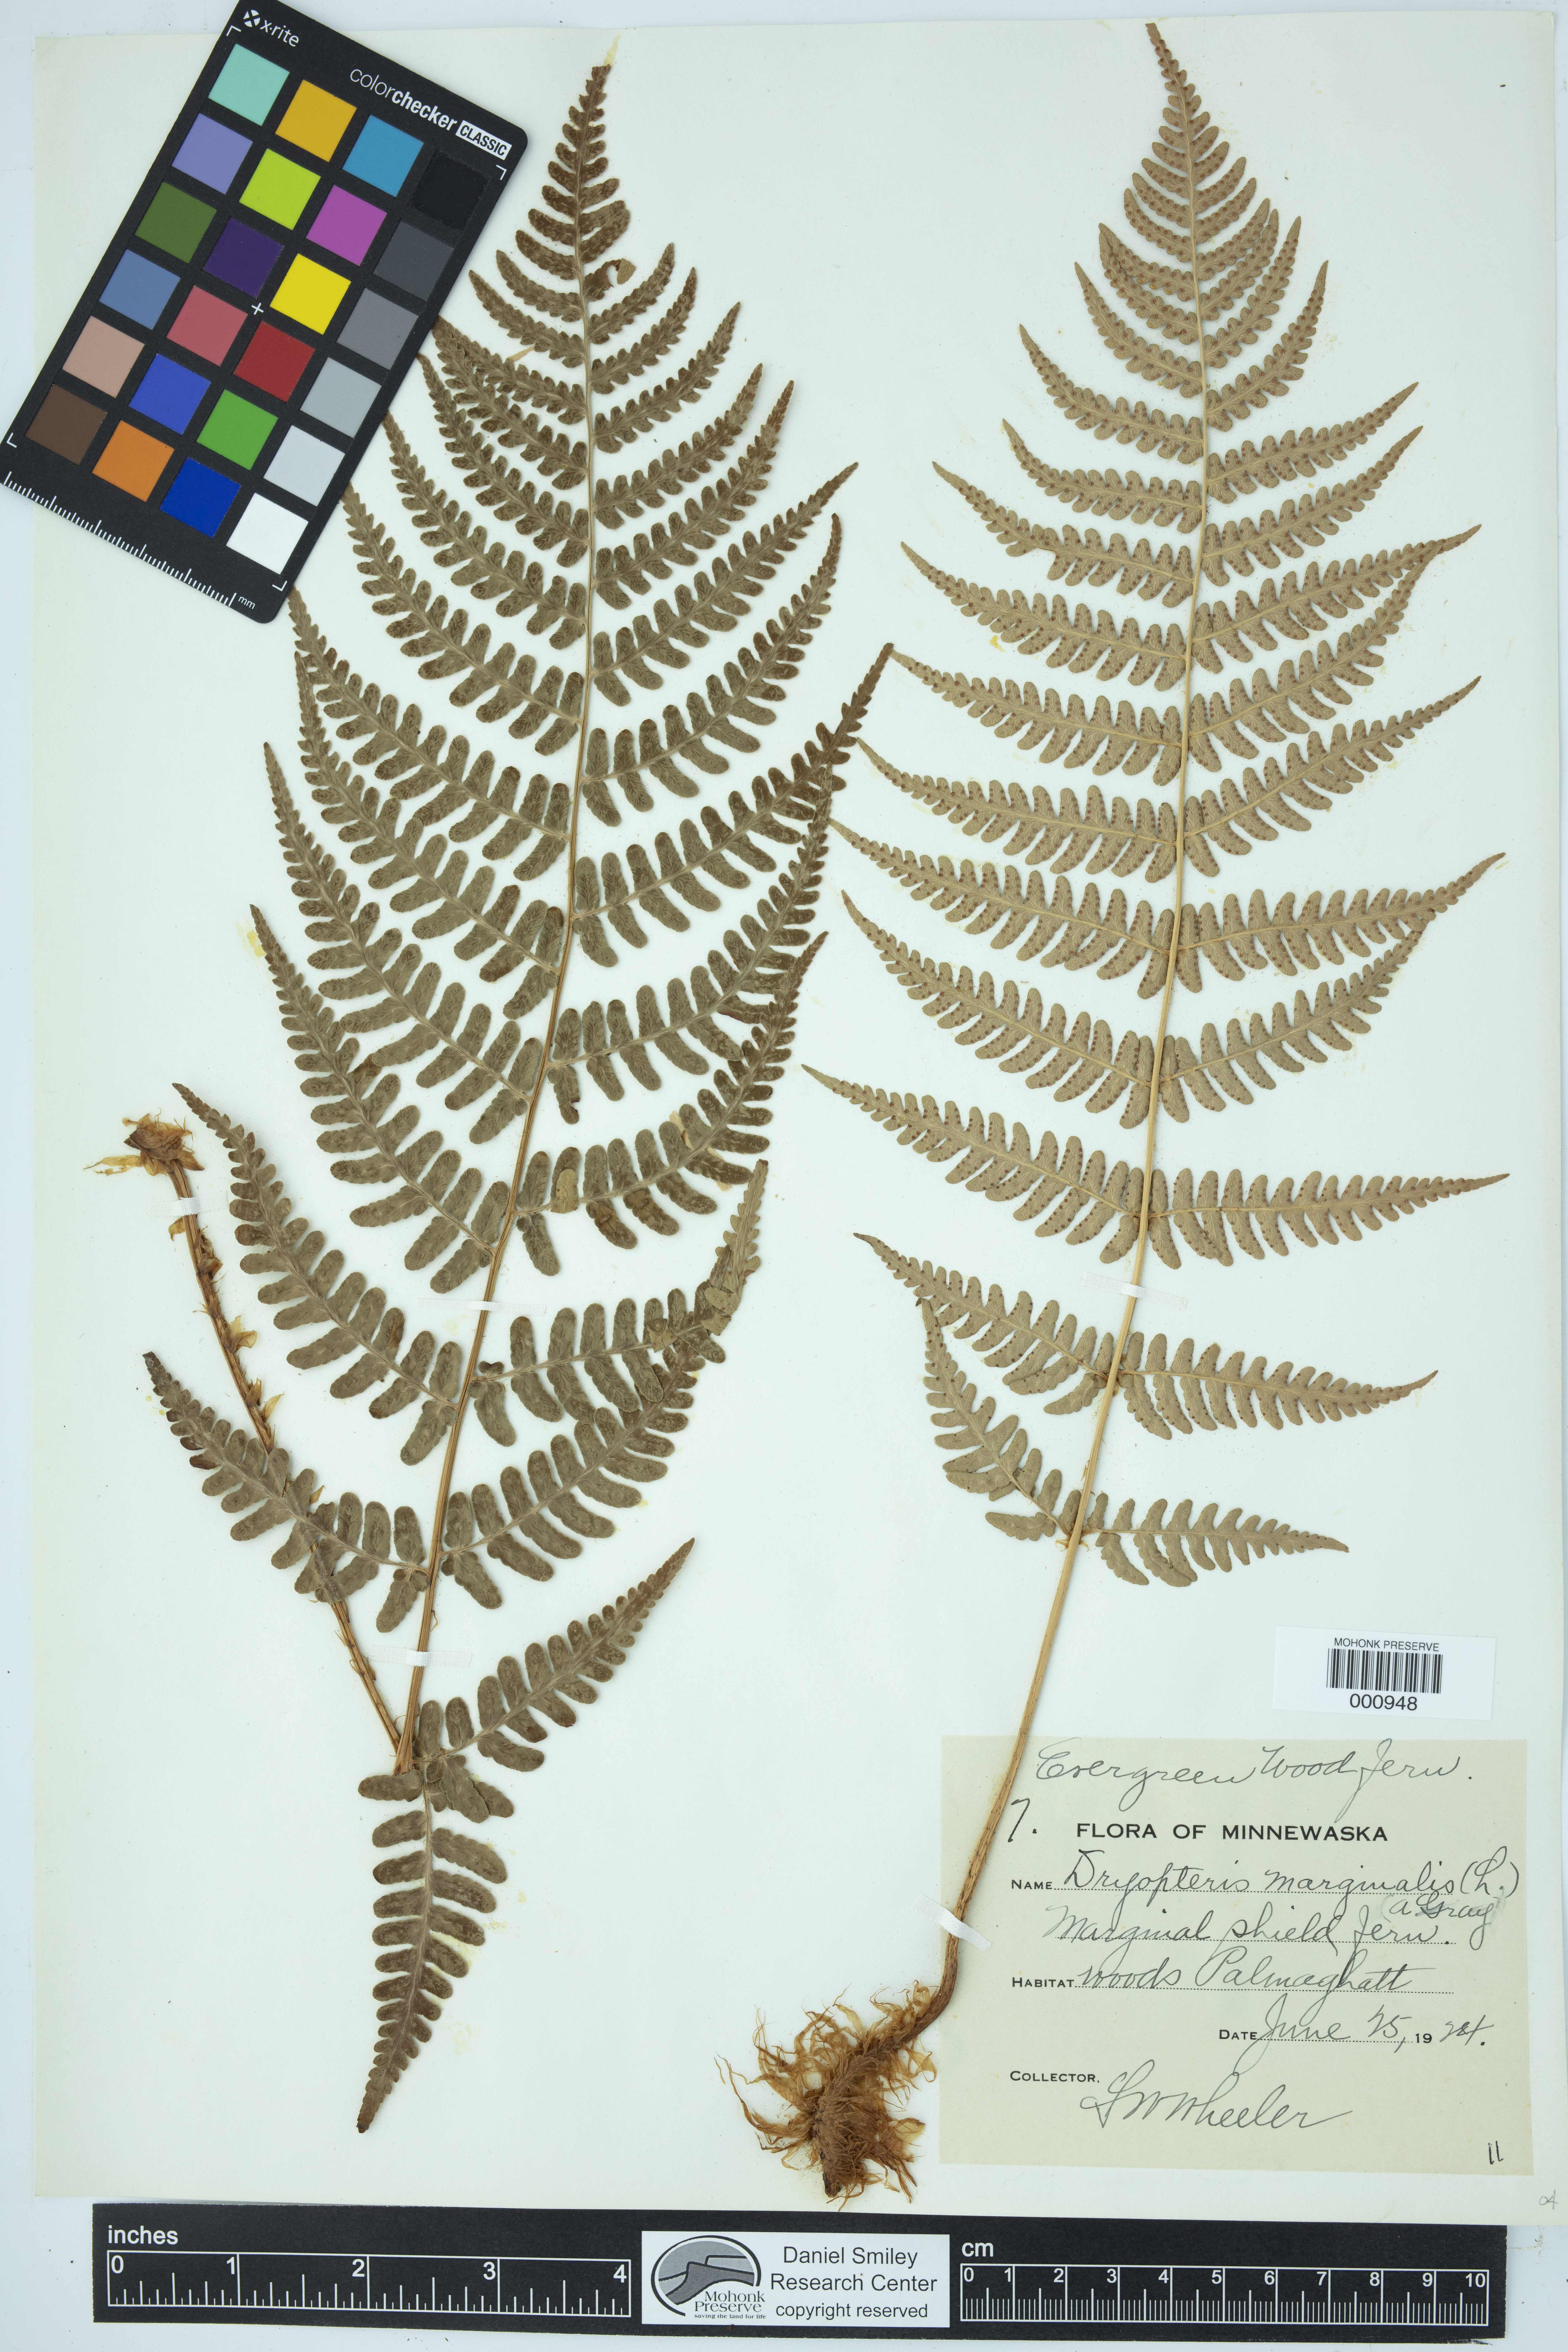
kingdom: Plantae
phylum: Tracheophyta
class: Polypodiopsida
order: Polypodiales
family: Dryopteridaceae
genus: Dryopteris
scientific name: Dryopteris marginalis
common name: Marginal wood fern
